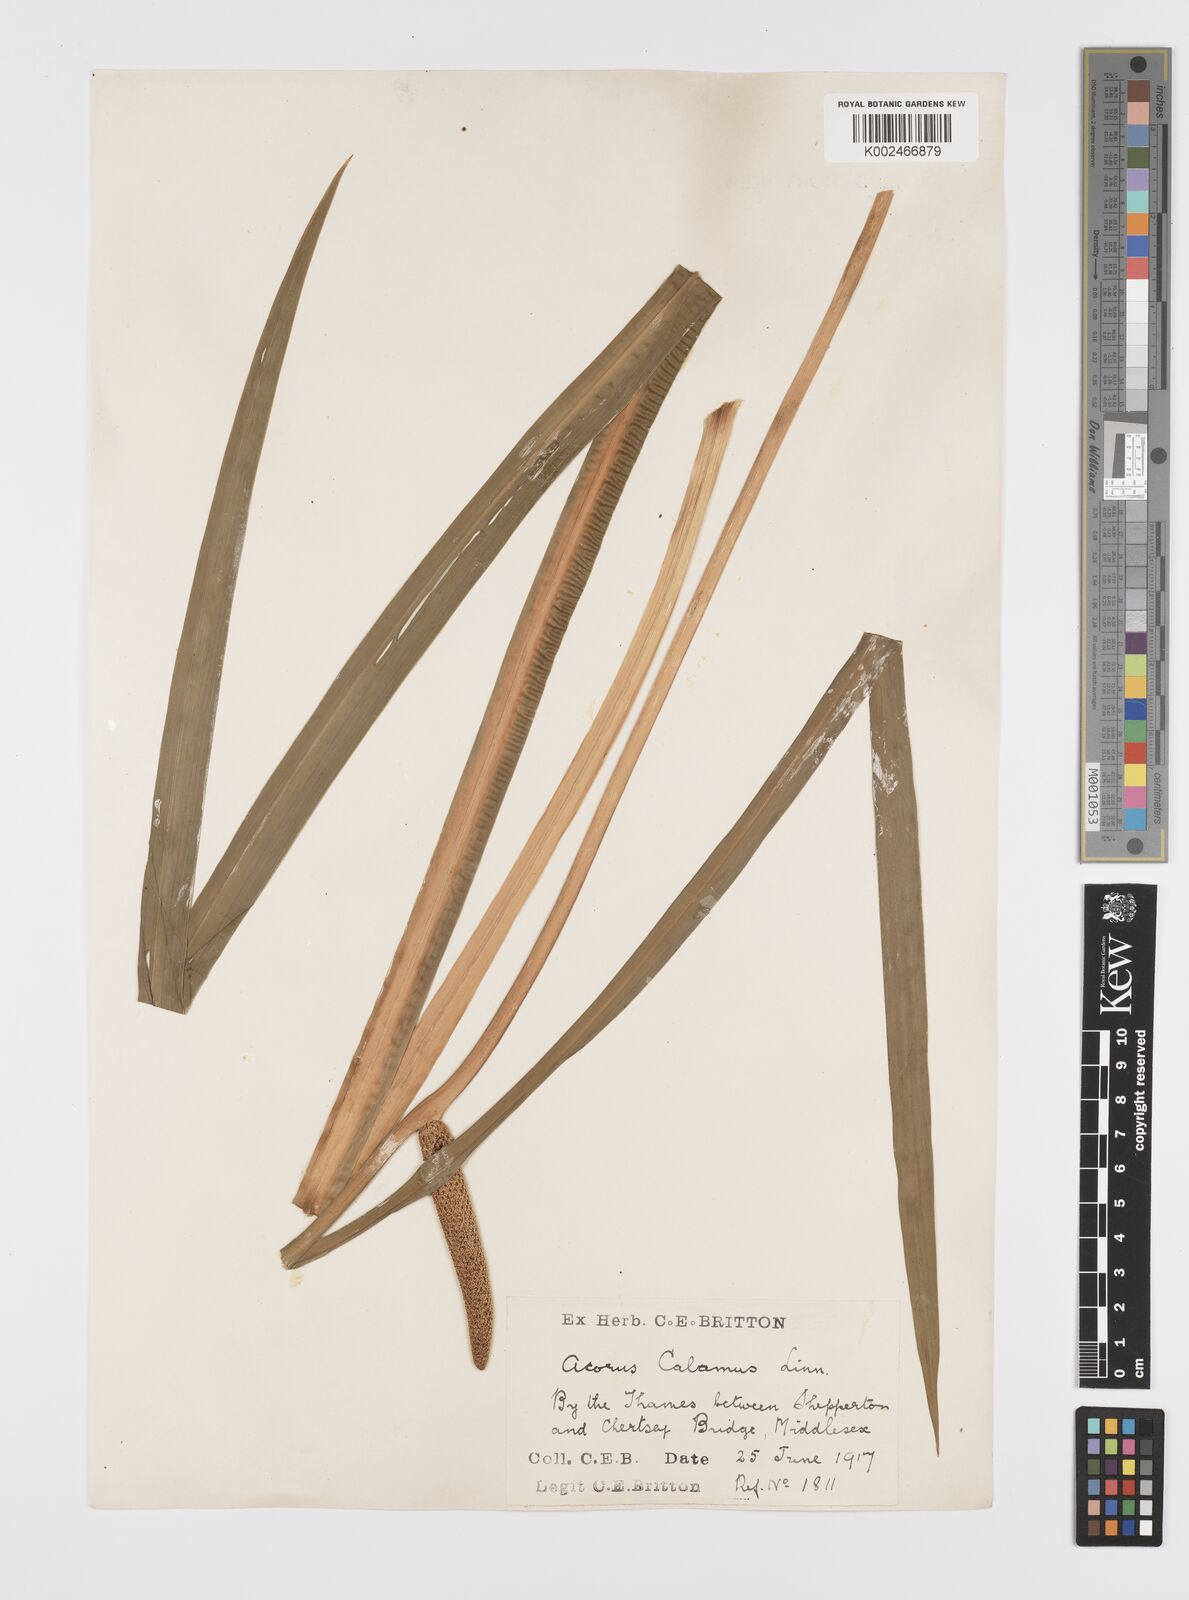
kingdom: Plantae
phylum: Tracheophyta
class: Liliopsida
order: Acorales
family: Acoraceae
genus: Acorus
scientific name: Acorus calamus
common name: Sweet-flag
